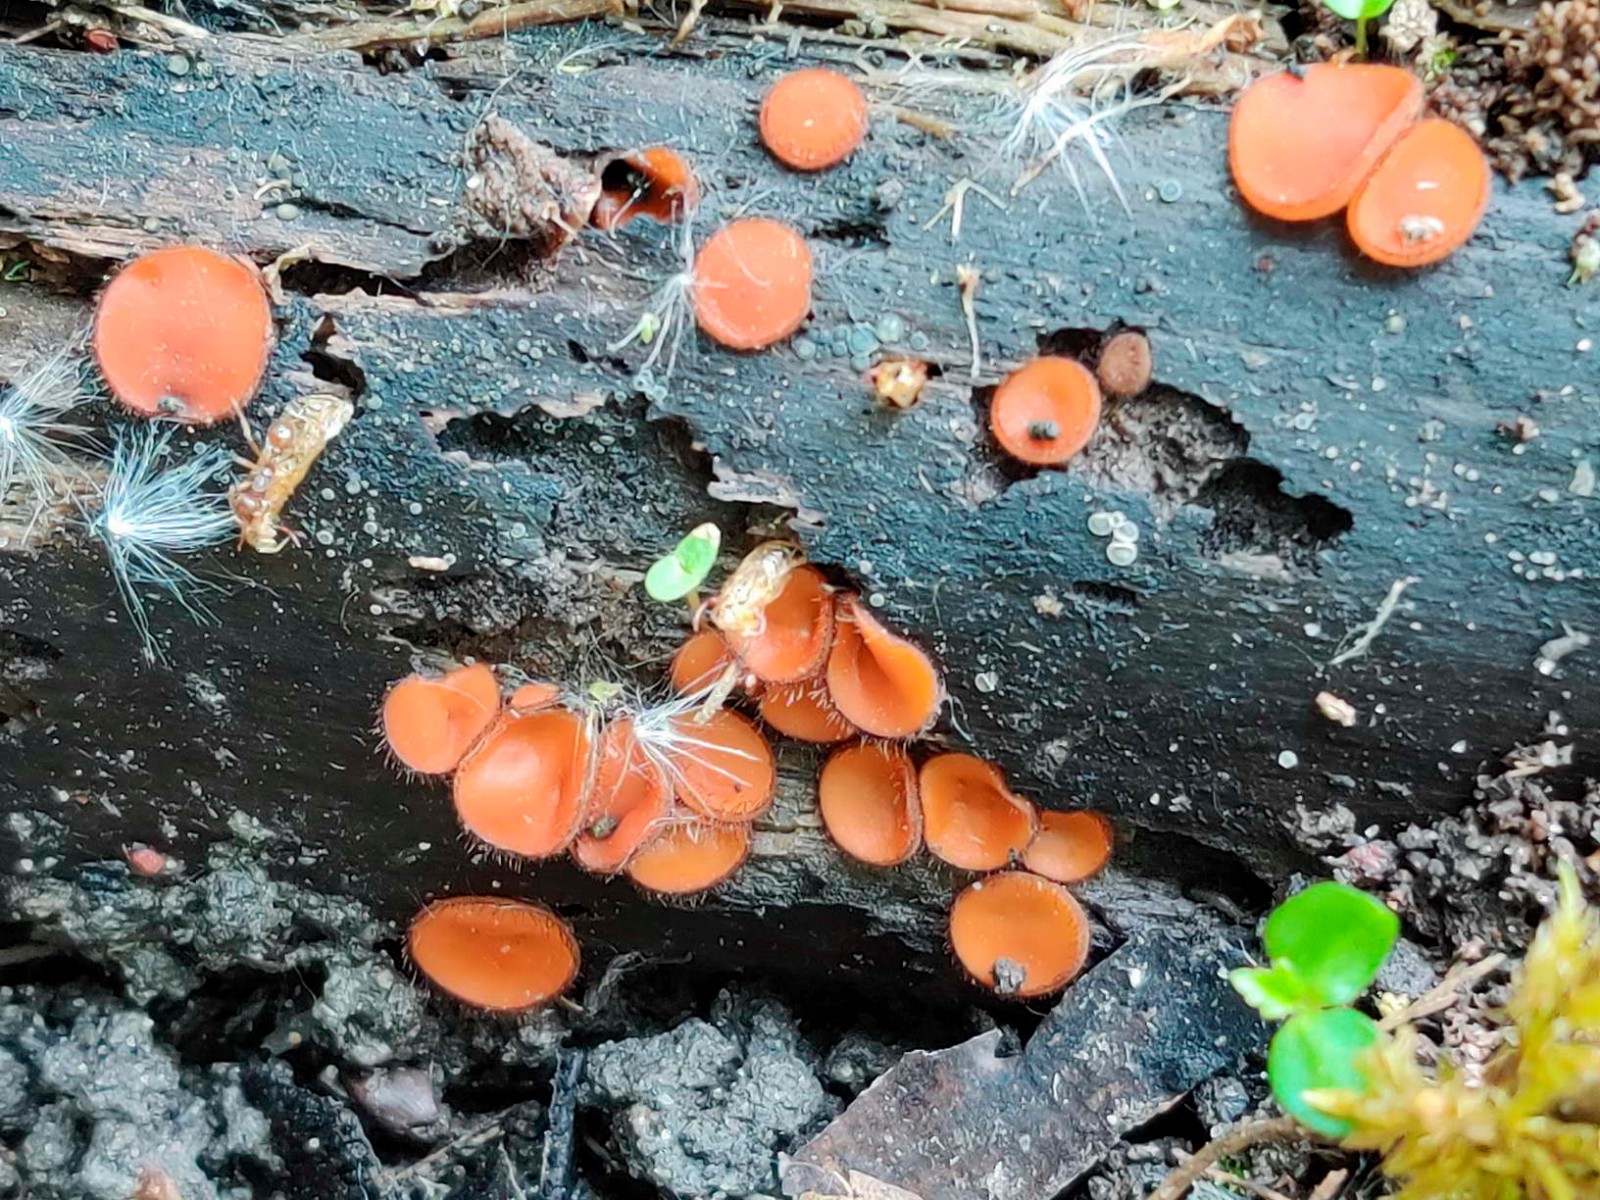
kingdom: Fungi
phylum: Ascomycota
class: Pezizomycetes
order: Pezizales
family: Pyronemataceae
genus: Scutellinia
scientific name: Scutellinia scutellata
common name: frynset skjoldbæger
